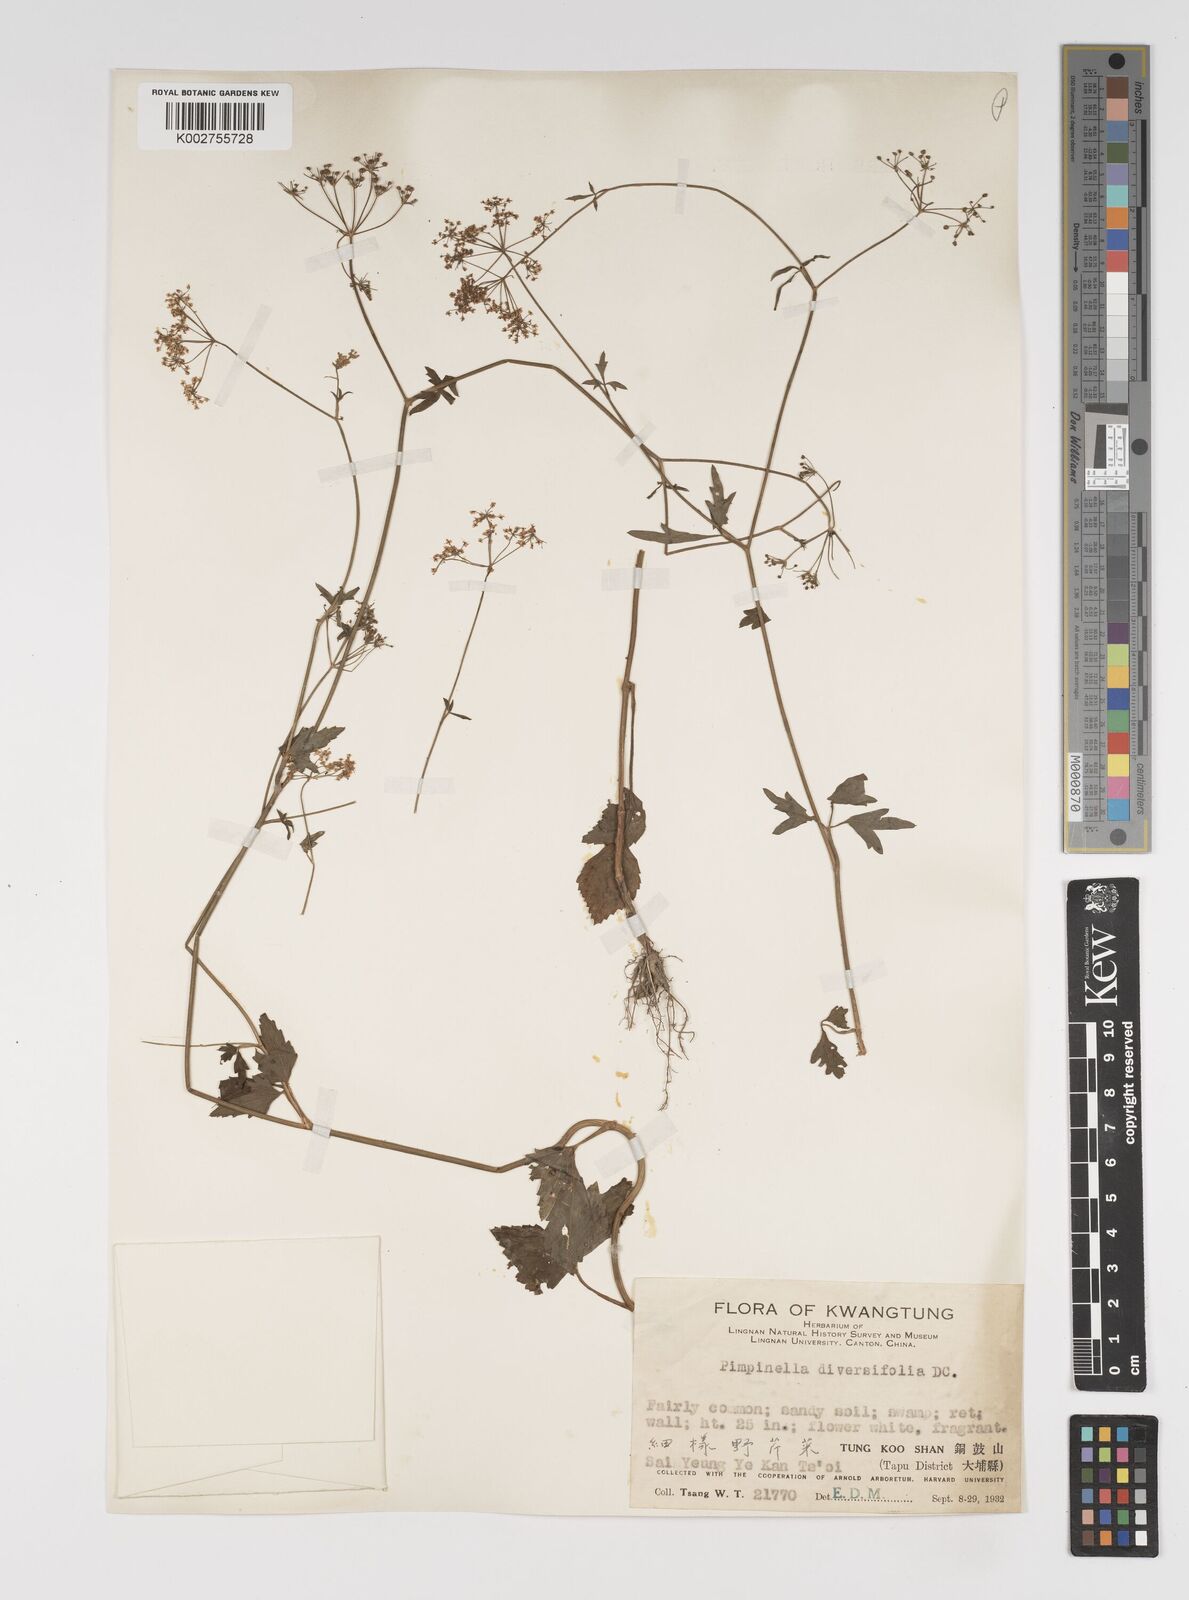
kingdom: Plantae
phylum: Tracheophyta
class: Magnoliopsida
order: Apiales
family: Apiaceae
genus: Pimpinella
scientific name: Pimpinella diversifolia
